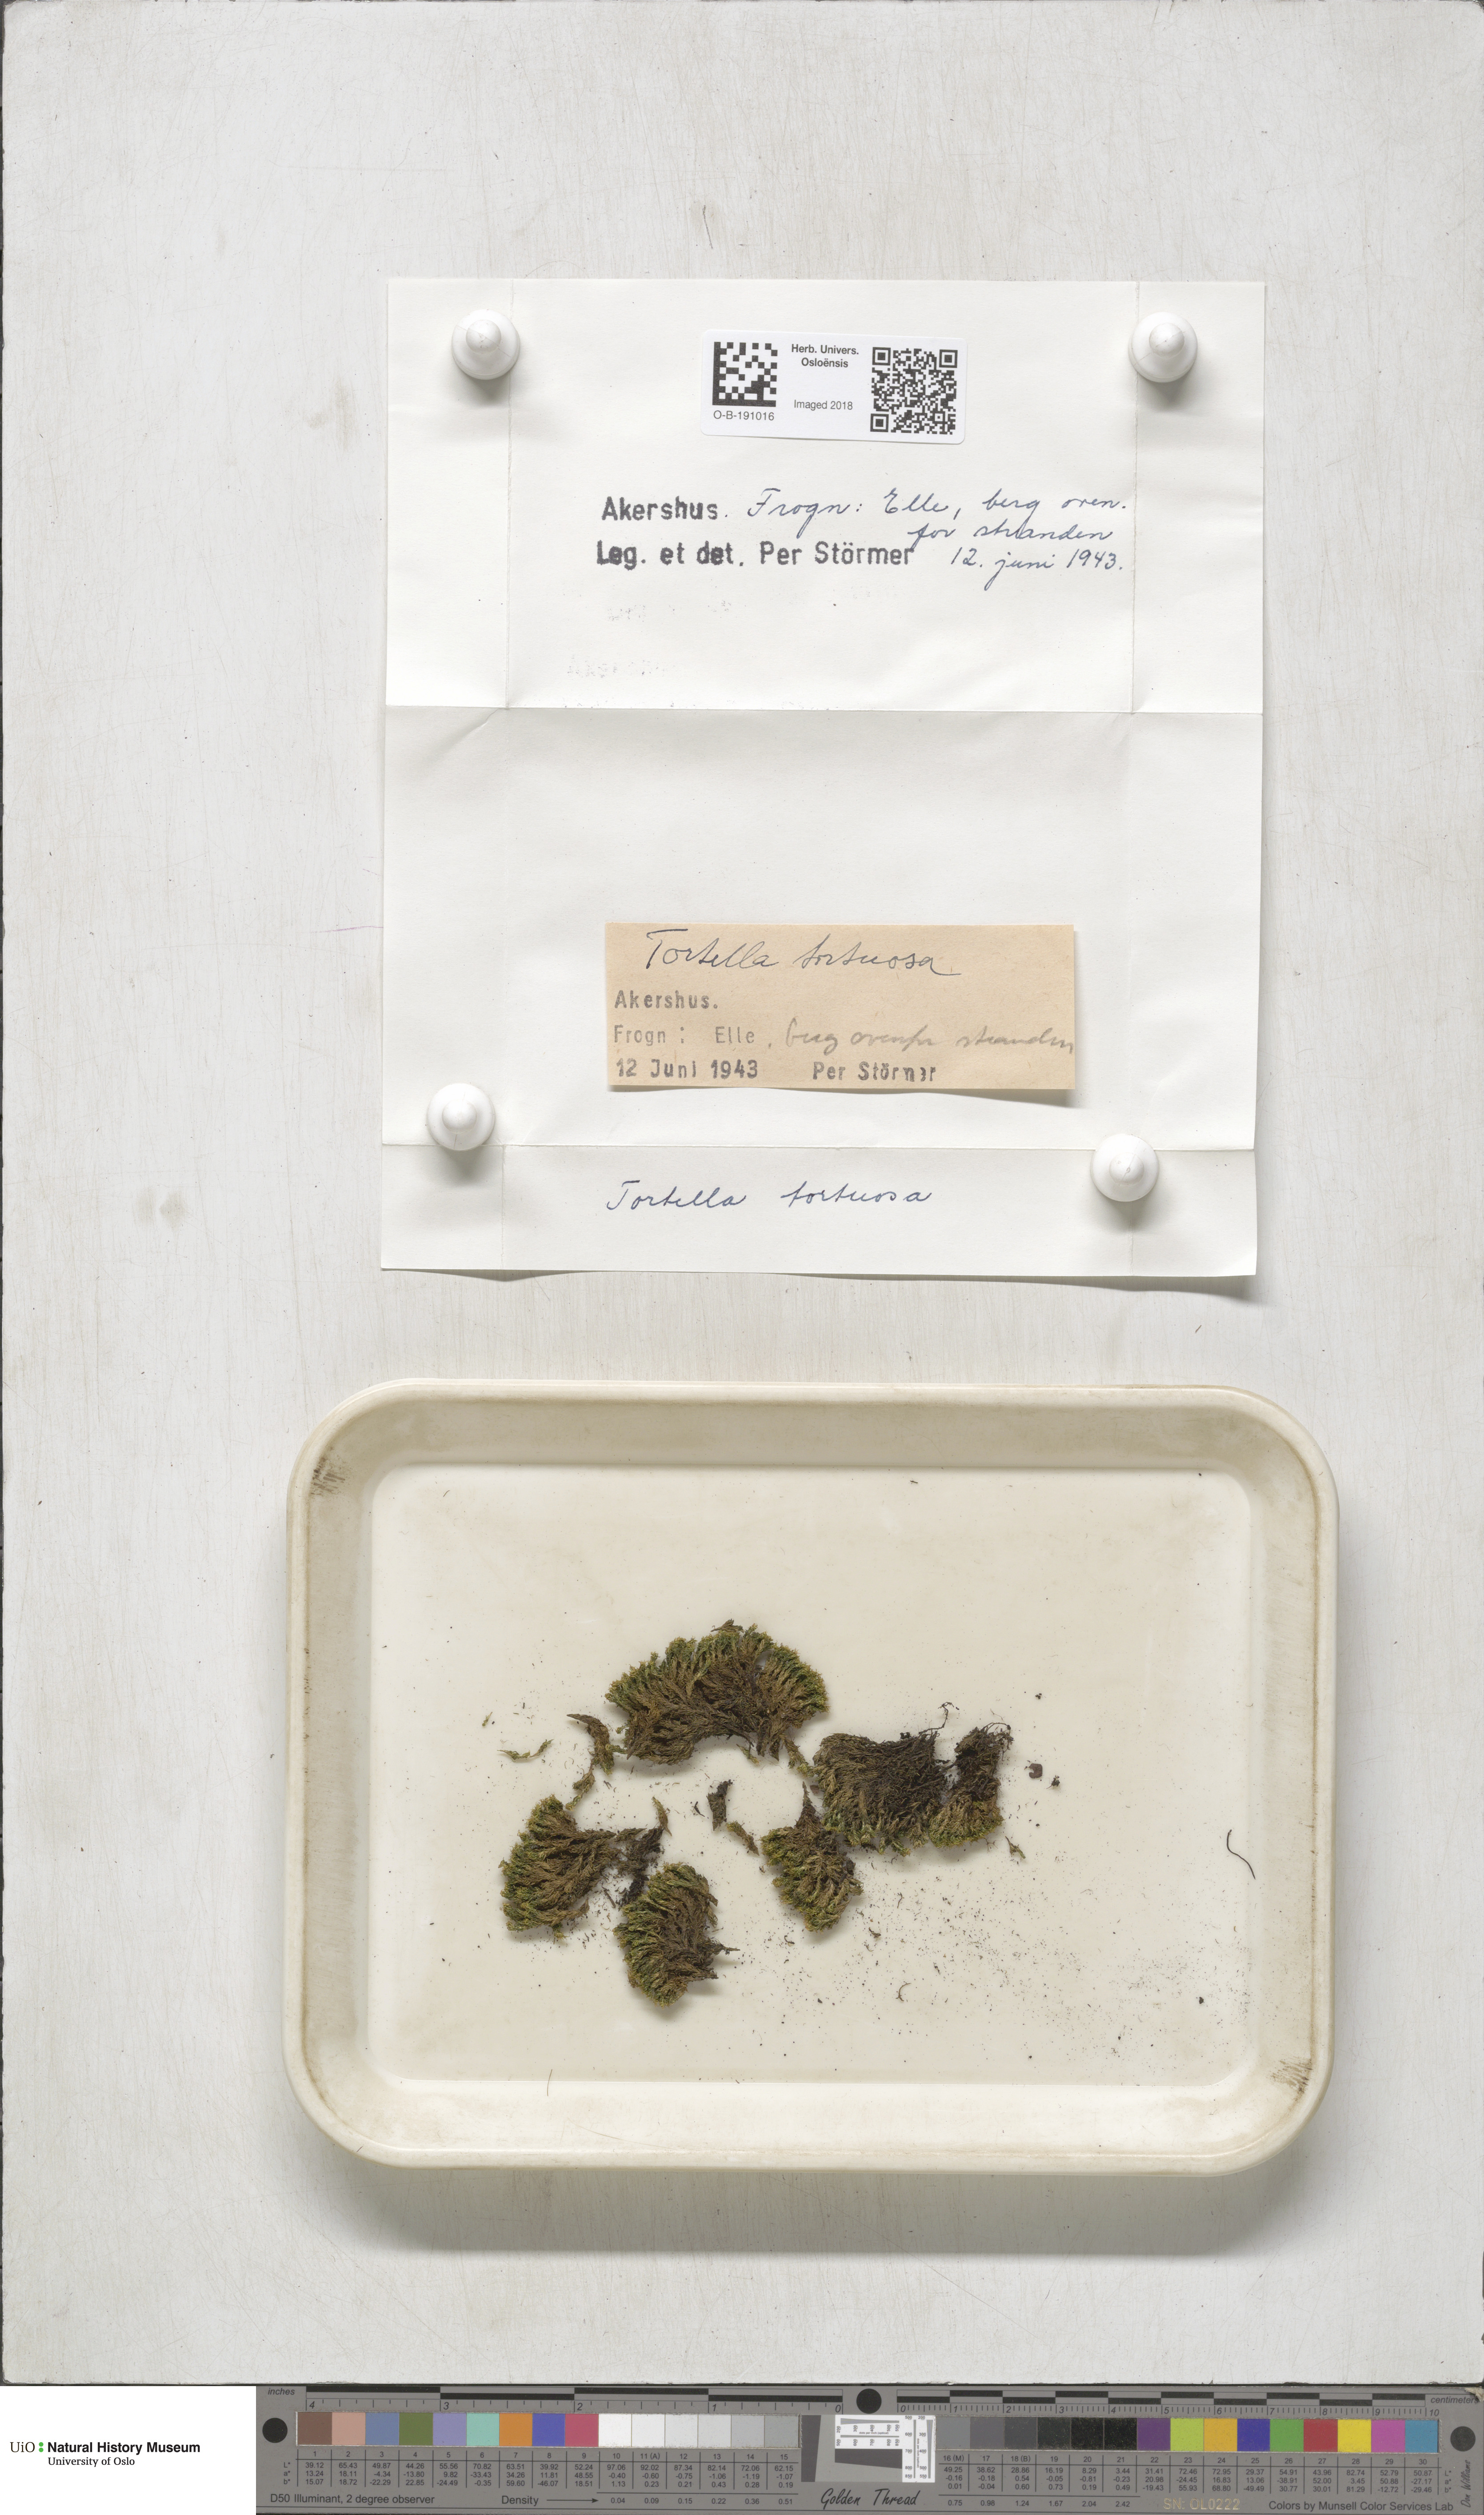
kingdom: Plantae
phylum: Bryophyta
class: Bryopsida
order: Pottiales
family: Pottiaceae
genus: Tortella
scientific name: Tortella tortuosa
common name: Frizzled crisp moss
